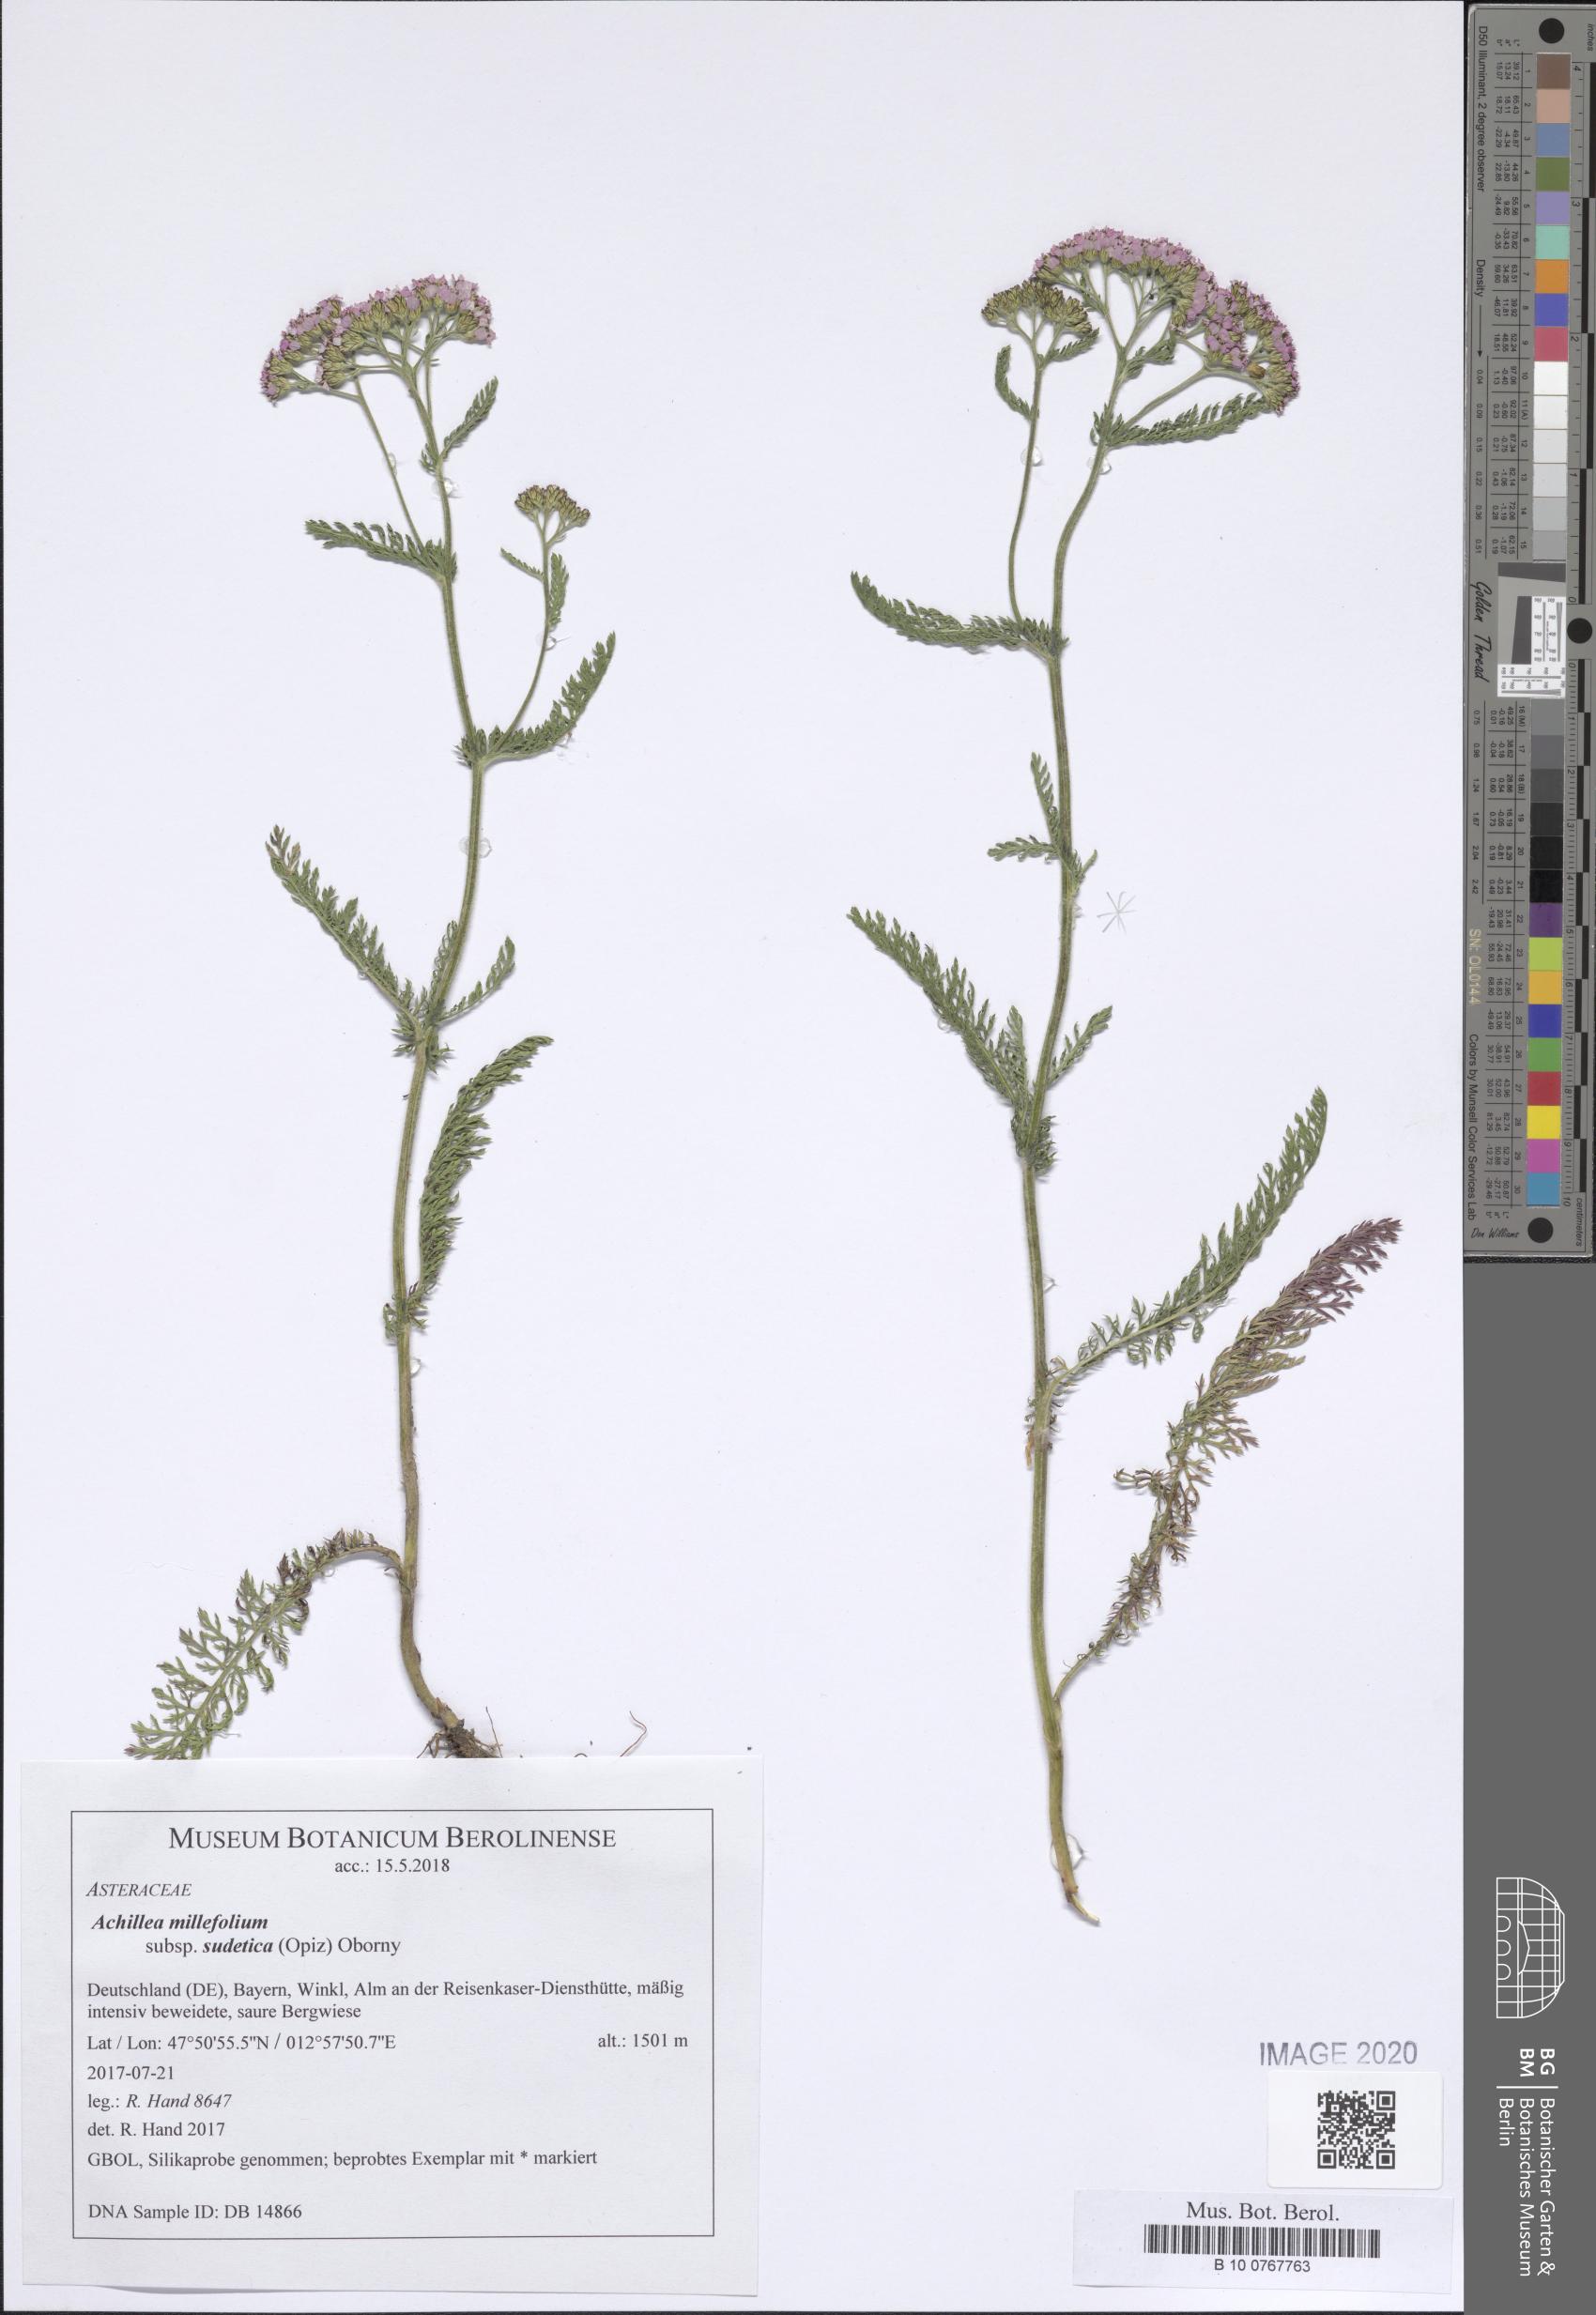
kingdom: Plantae
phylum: Tracheophyta
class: Magnoliopsida
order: Asterales
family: Asteraceae
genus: Achillea
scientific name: Achillea millefolium
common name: Yarrow
